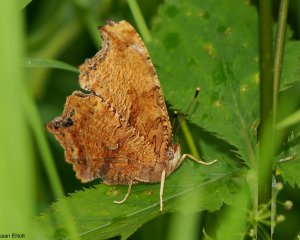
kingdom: Animalia
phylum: Arthropoda
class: Insecta
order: Lepidoptera
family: Nymphalidae
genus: Polygonia
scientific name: Polygonia comma
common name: Eastern Comma
